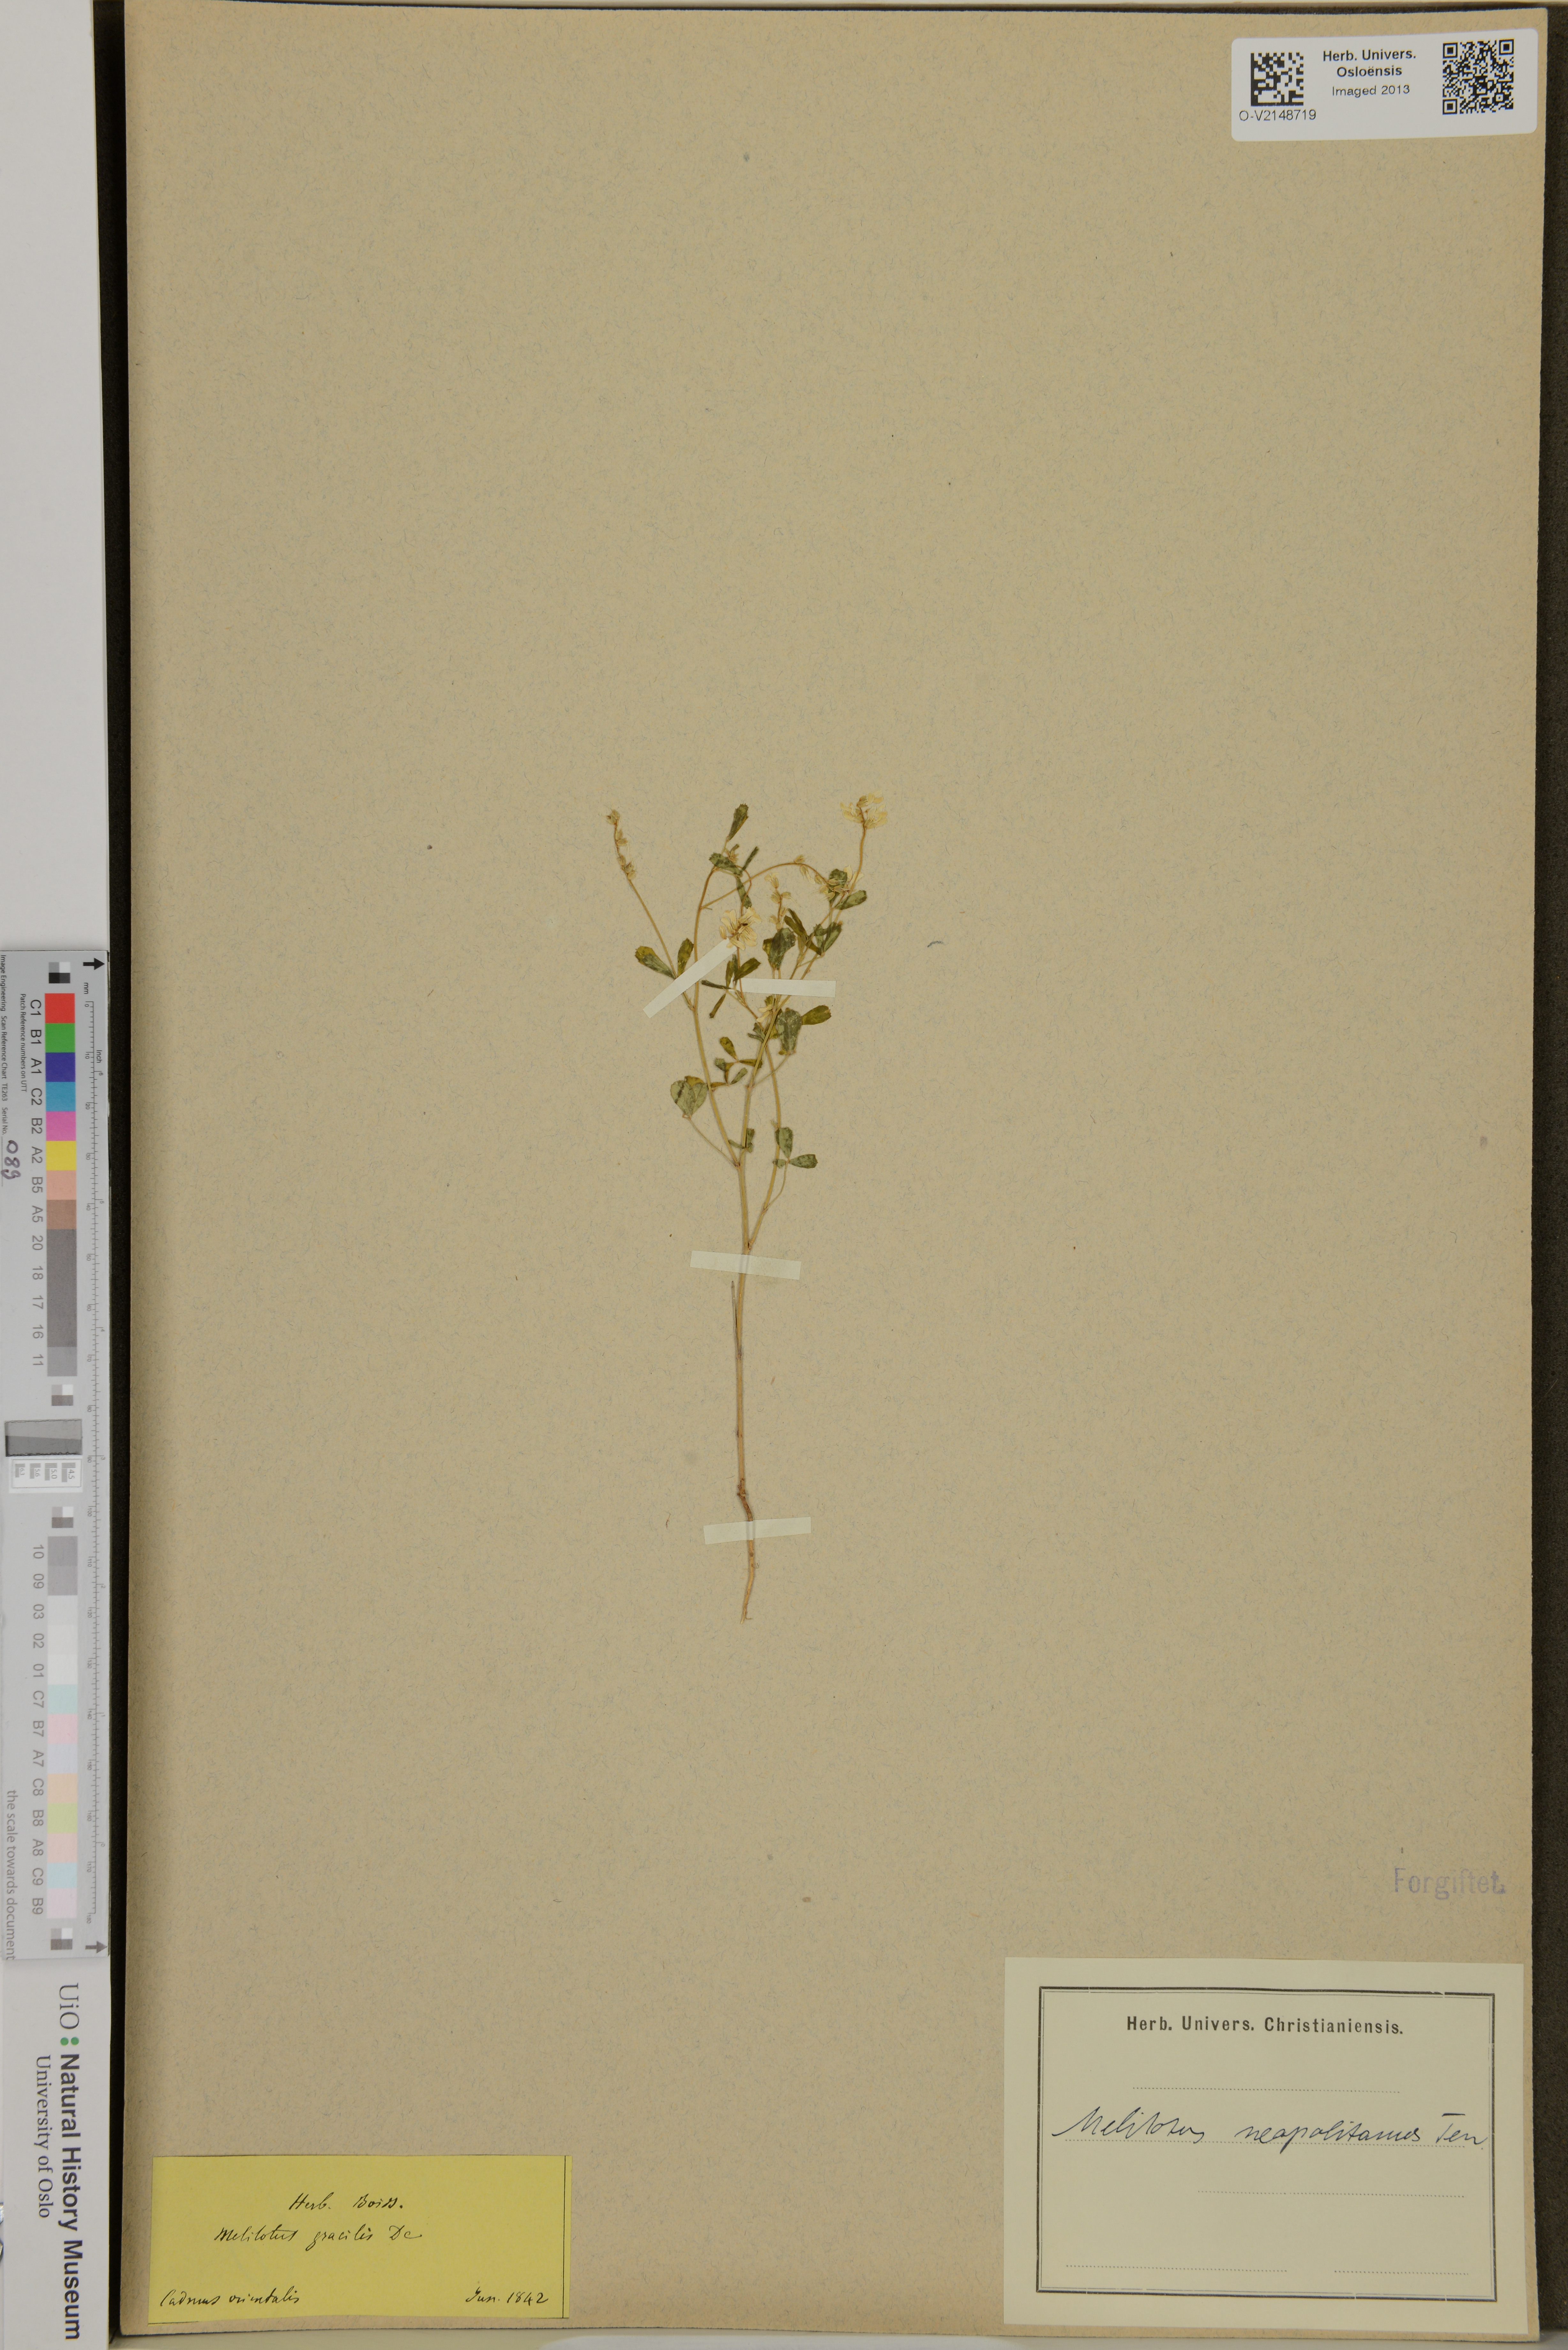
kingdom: Plantae
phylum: Tracheophyta
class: Magnoliopsida
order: Fabales
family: Fabaceae
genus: Melilotus
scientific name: Melilotus neapolitanus
